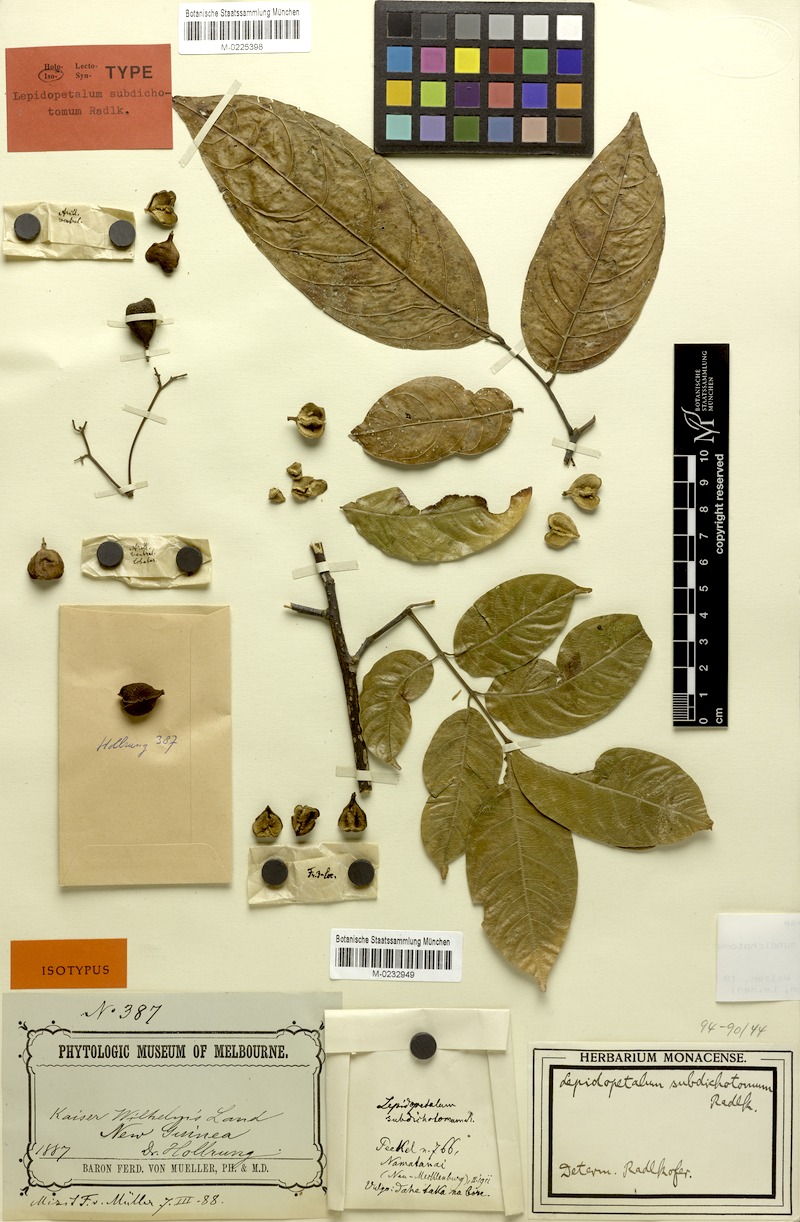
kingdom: Plantae
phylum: Tracheophyta
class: Magnoliopsida
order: Sapindales
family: Sapindaceae
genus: Lepidopetalum
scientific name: Lepidopetalum subdichotomum
